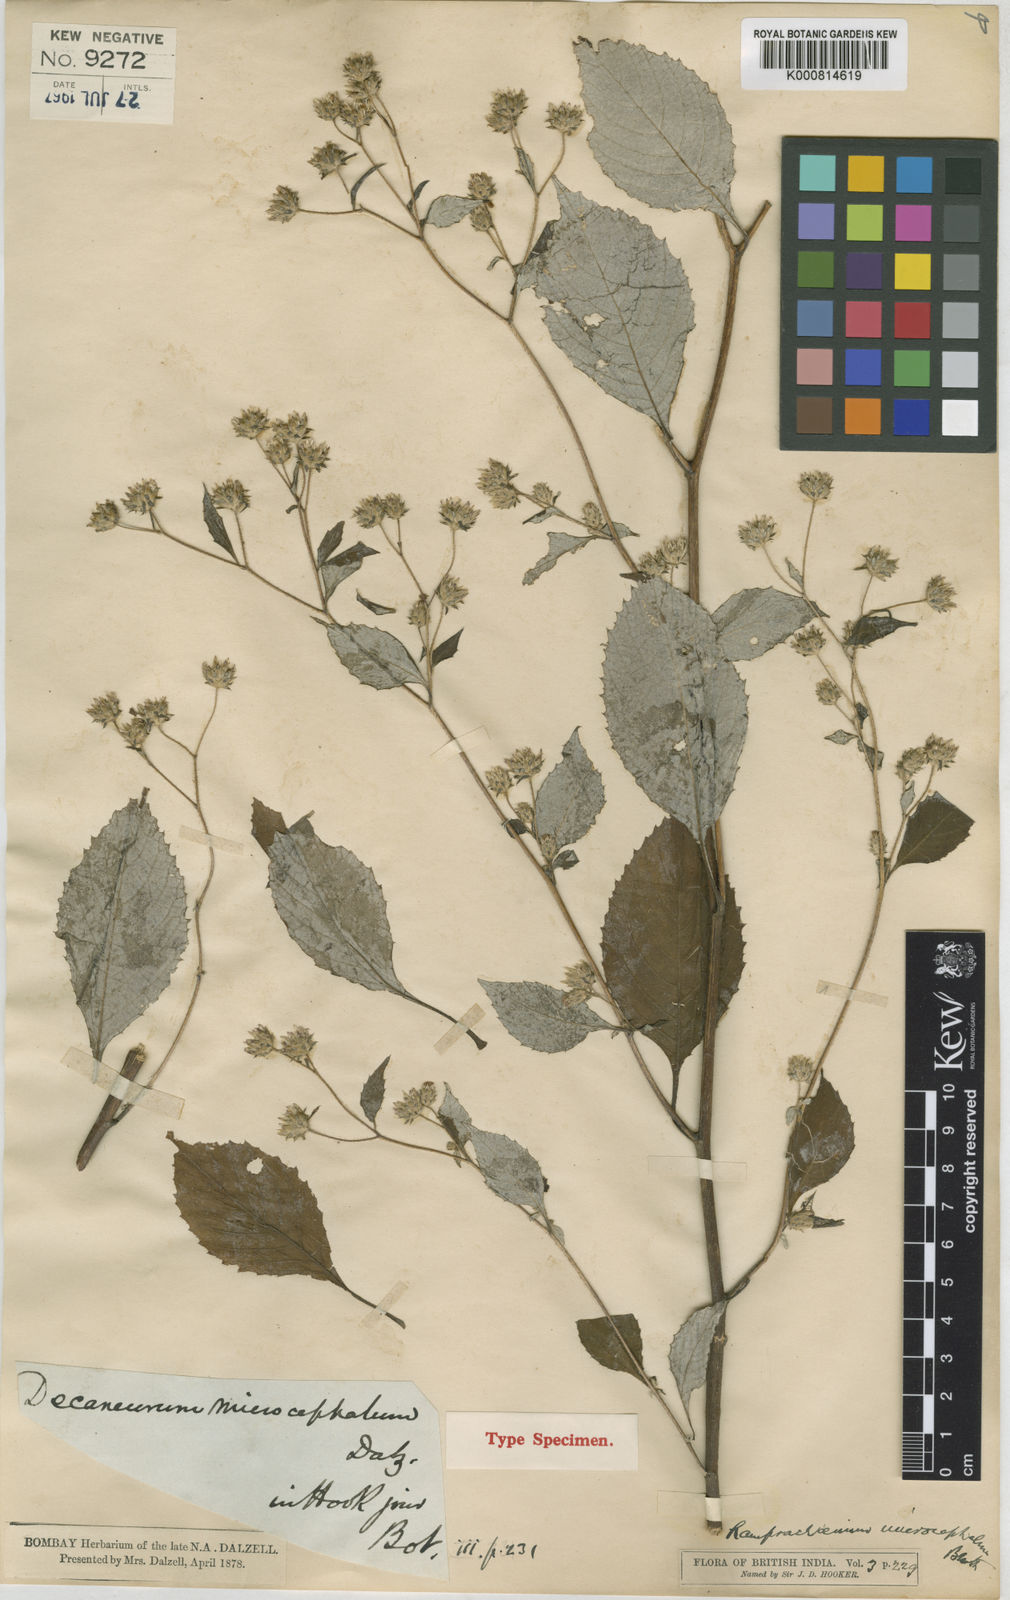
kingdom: Plantae
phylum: Tracheophyta
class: Magnoliopsida
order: Asterales
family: Asteraceae
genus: Phyllocephalum
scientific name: Phyllocephalum microcephalum
